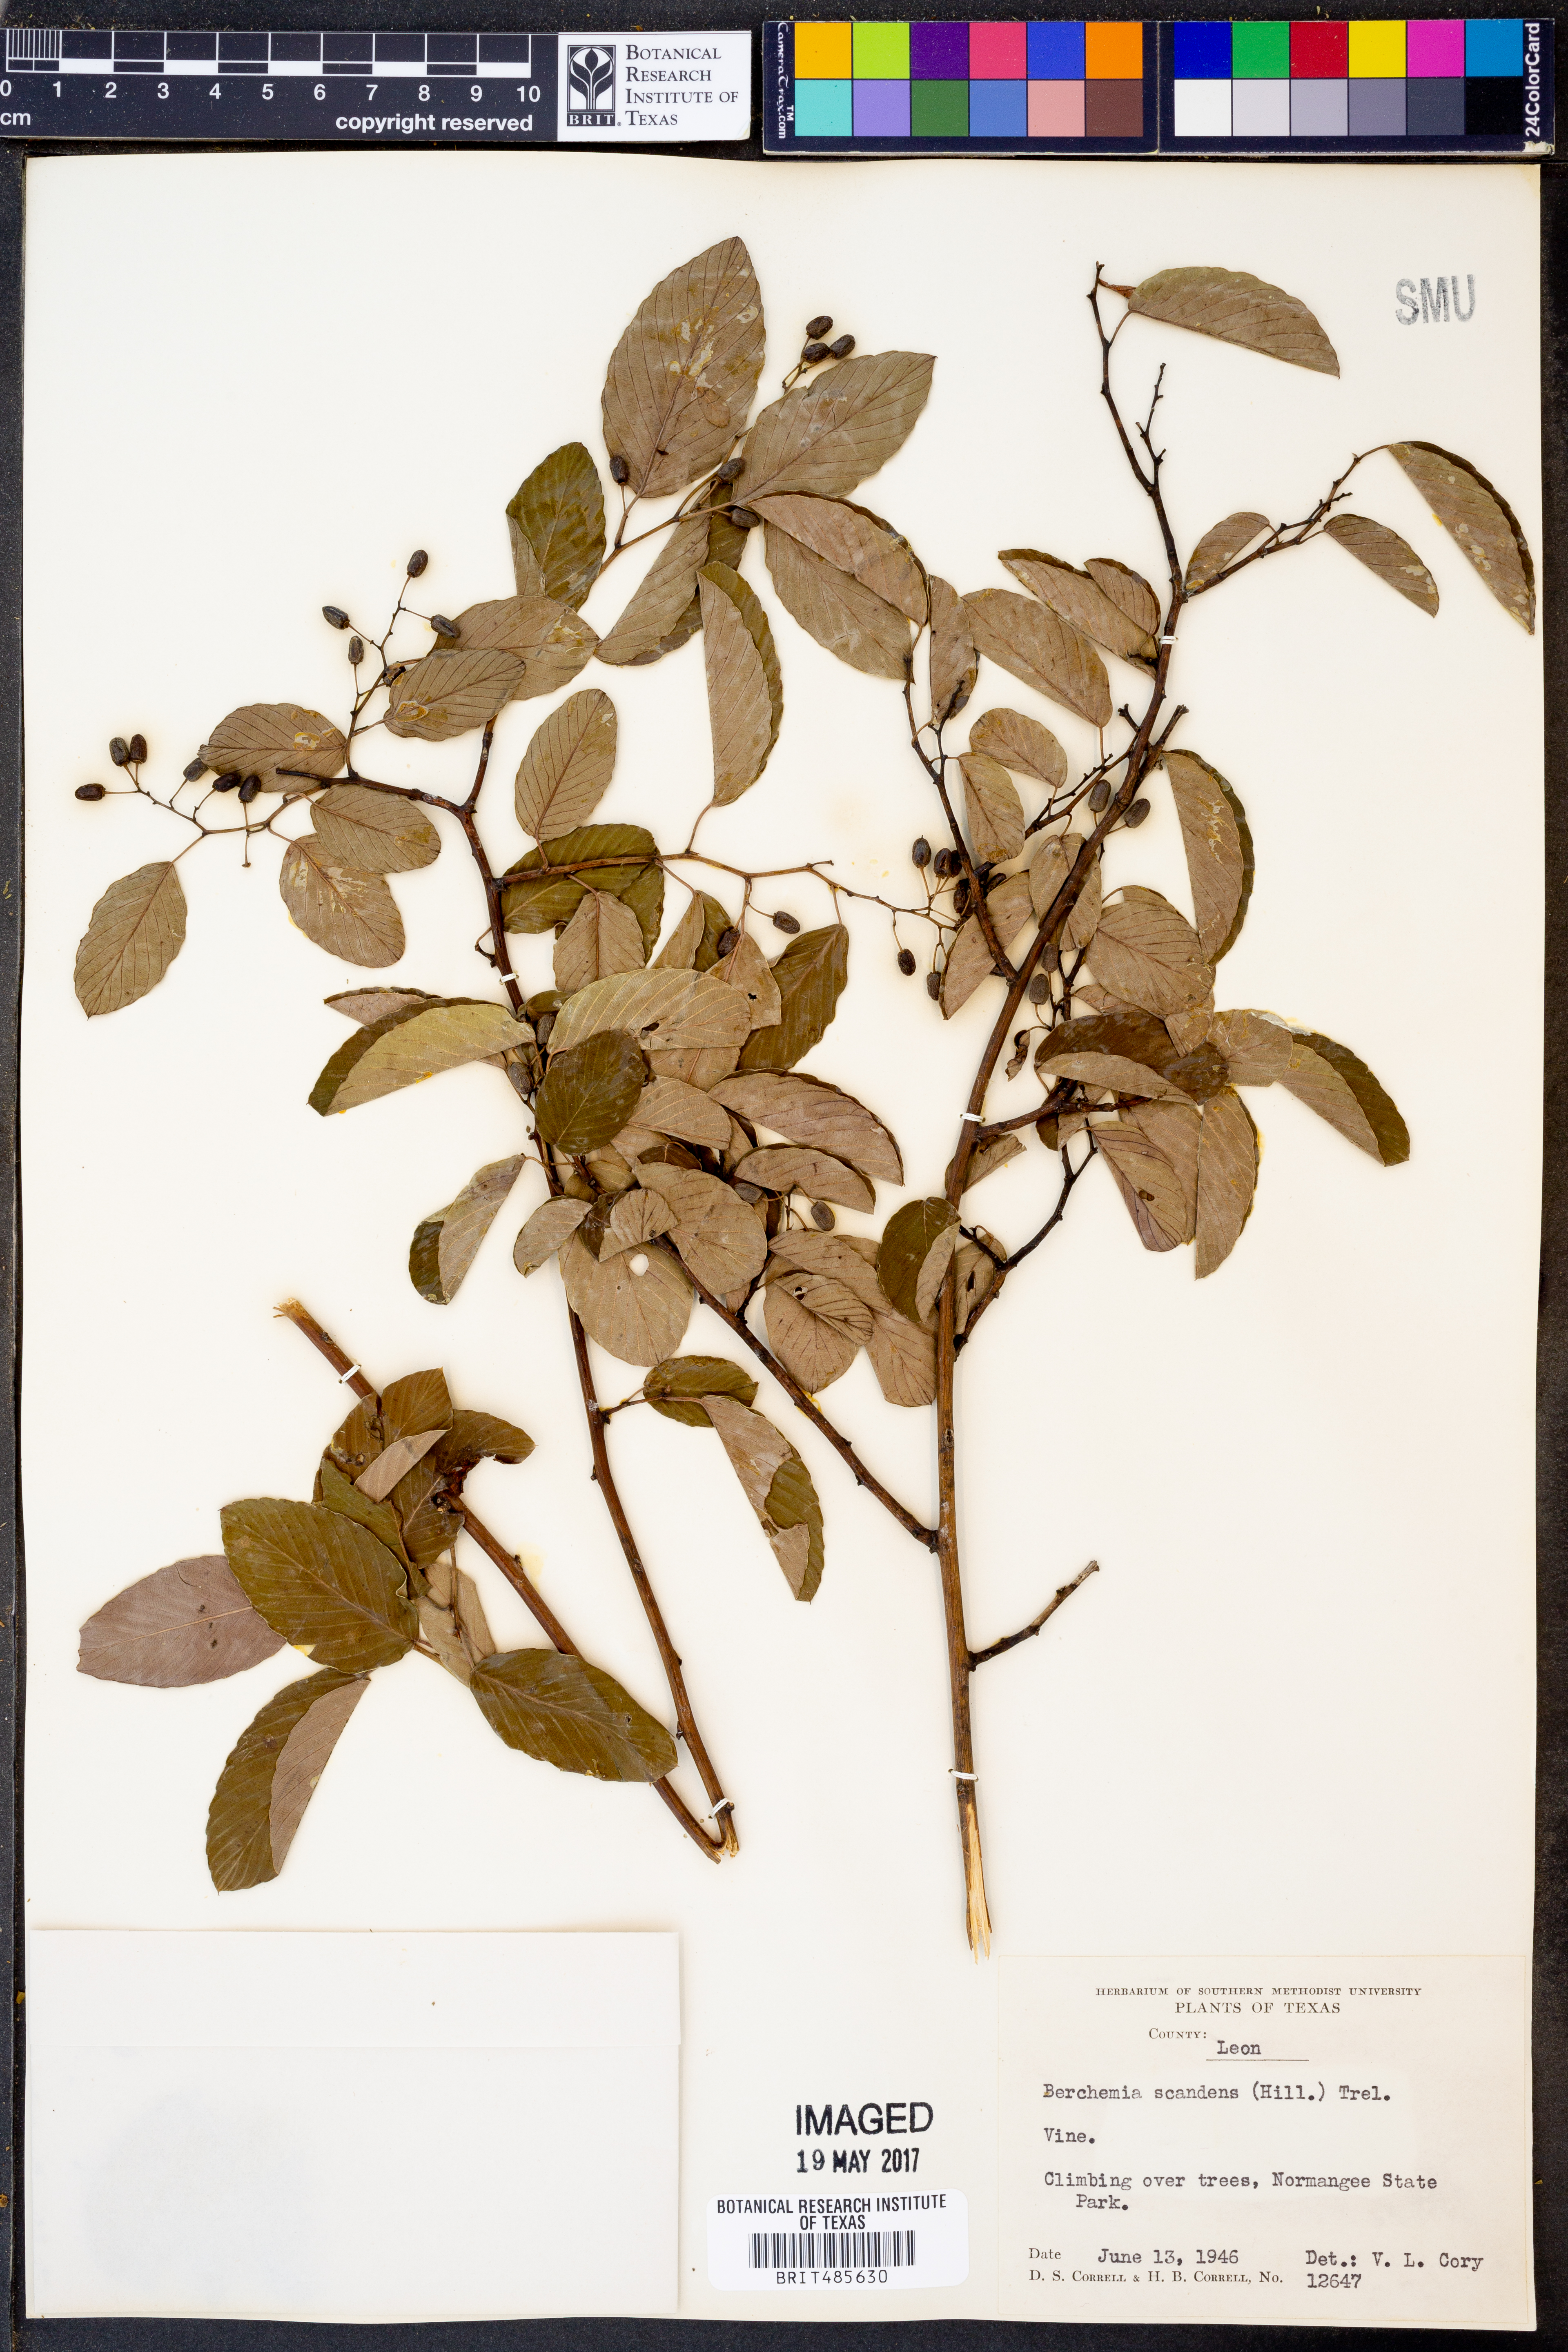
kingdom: Plantae
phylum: Tracheophyta
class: Magnoliopsida
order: Rosales
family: Rhamnaceae
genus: Berchemia
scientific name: Berchemia scandens
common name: Supplejack
